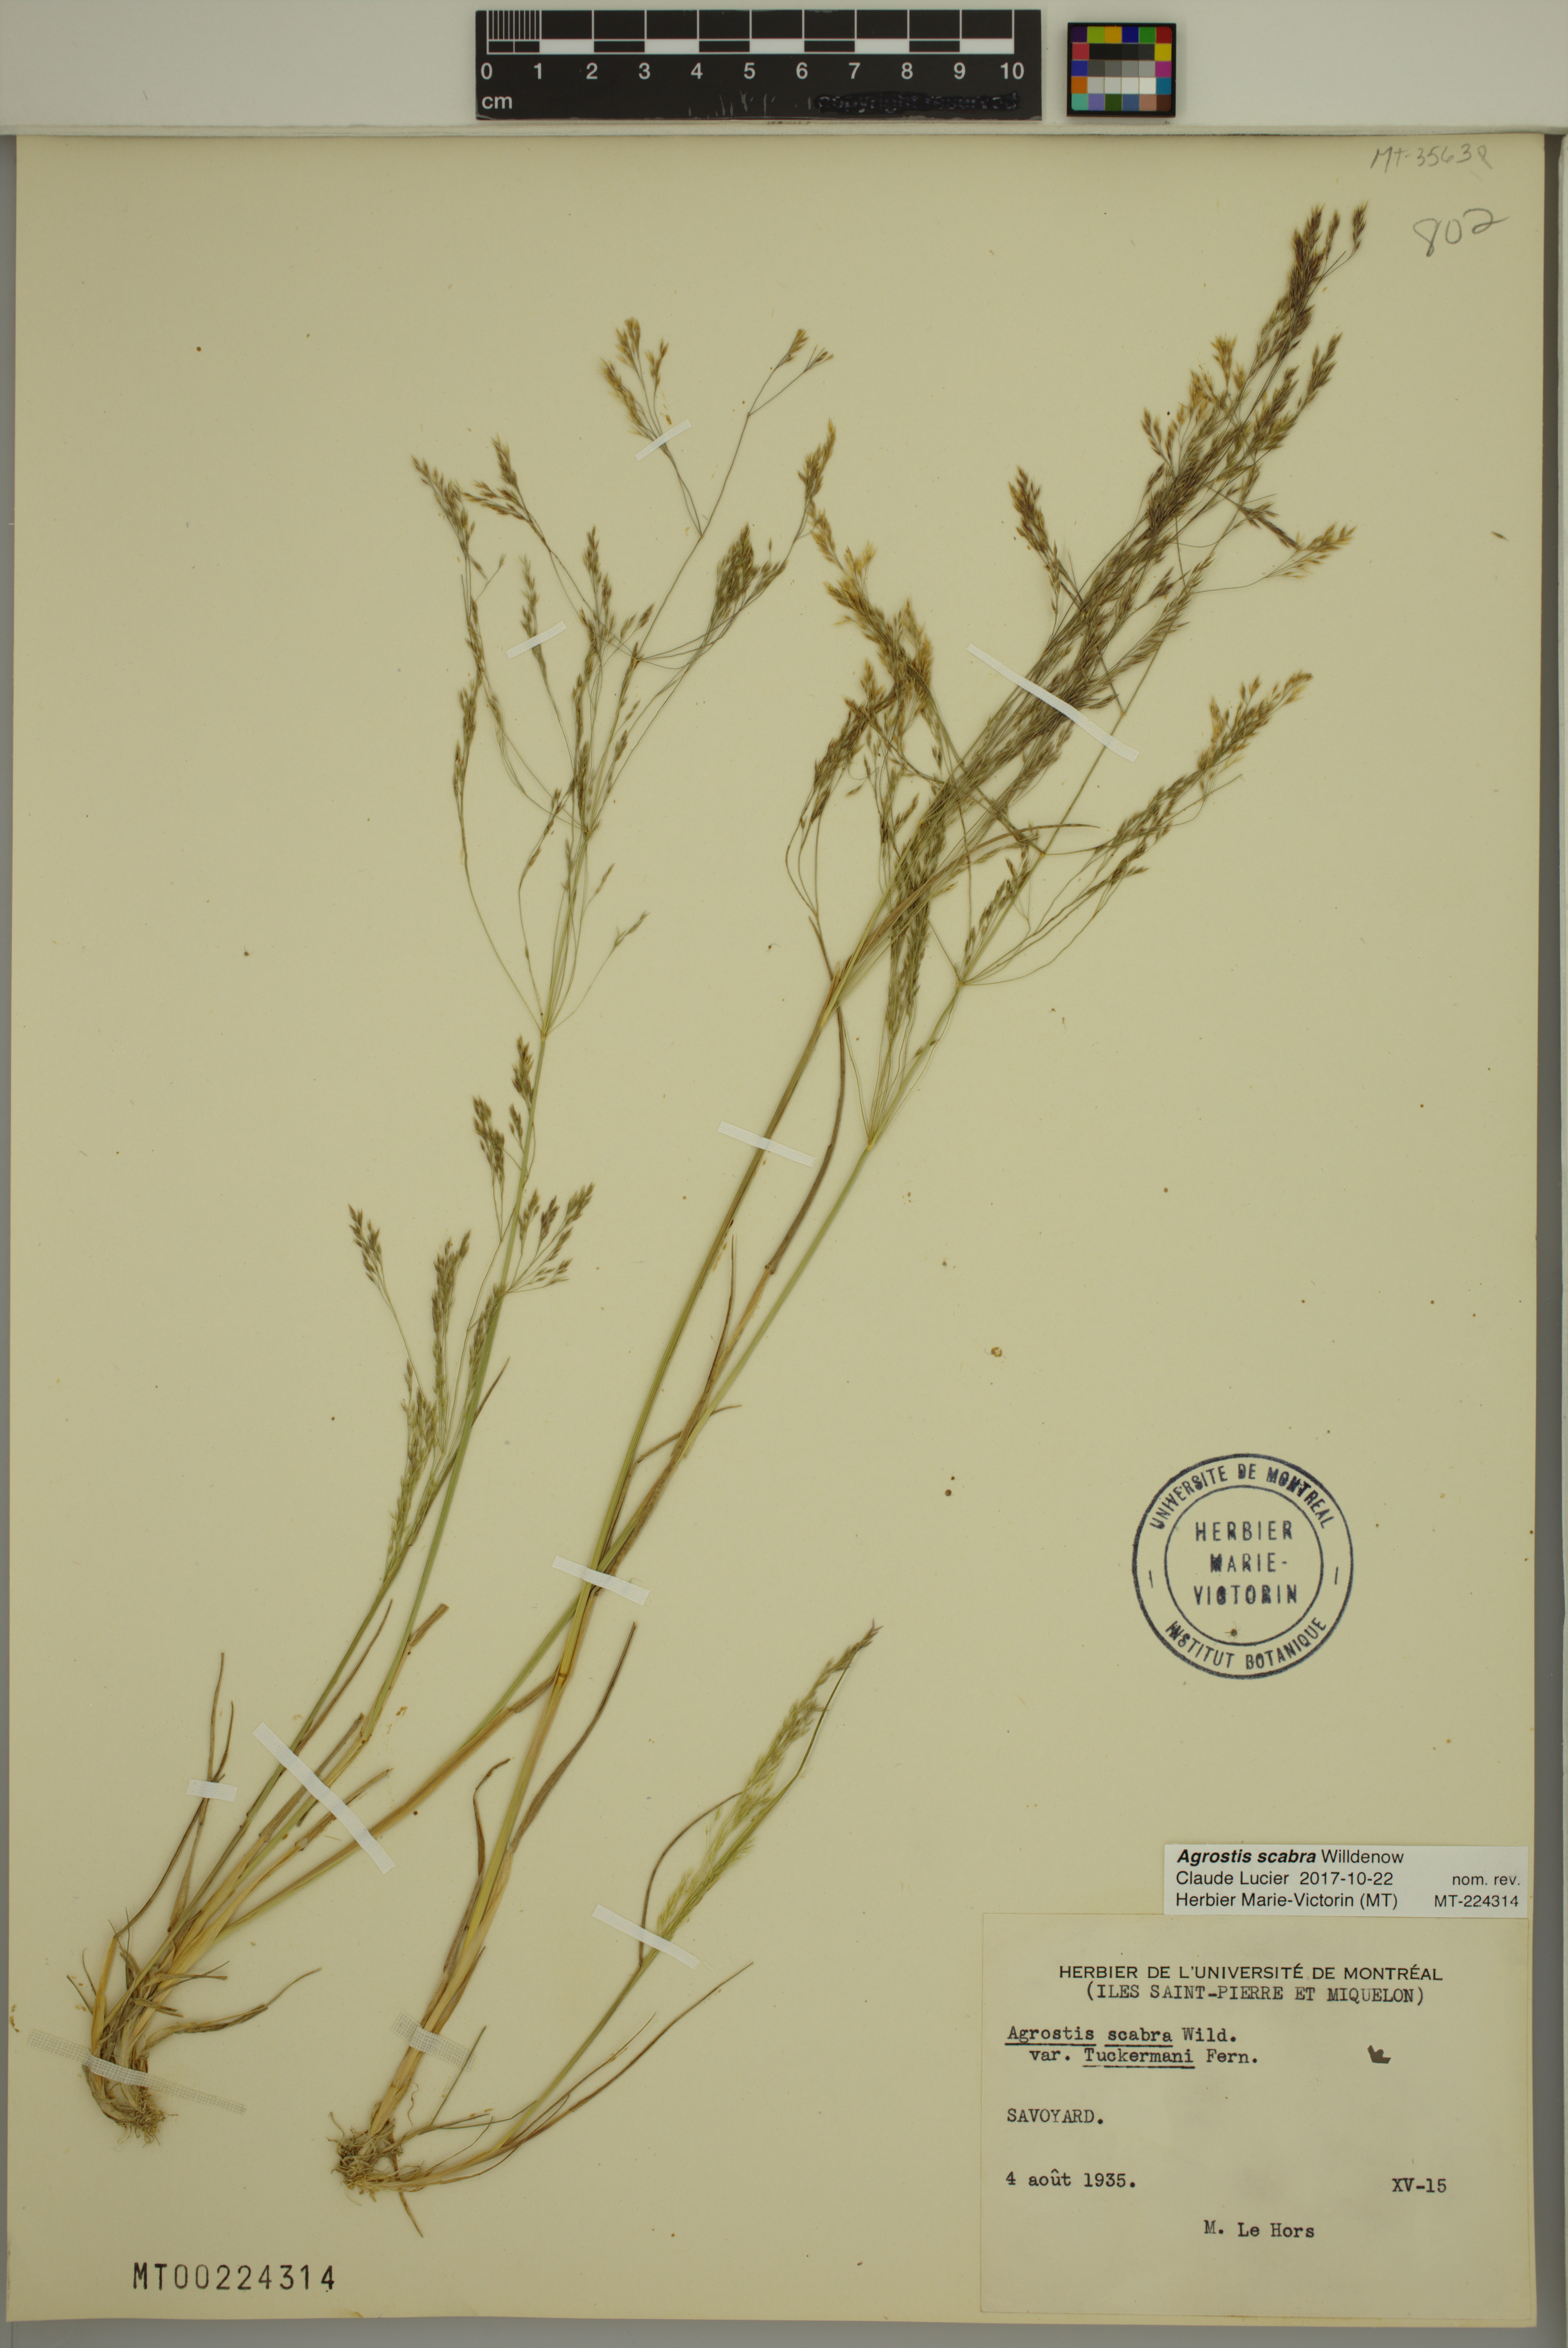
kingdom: Plantae
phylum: Tracheophyta
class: Liliopsida
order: Poales
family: Poaceae
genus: Agrostis
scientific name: Agrostis scabra
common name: Rough bent
